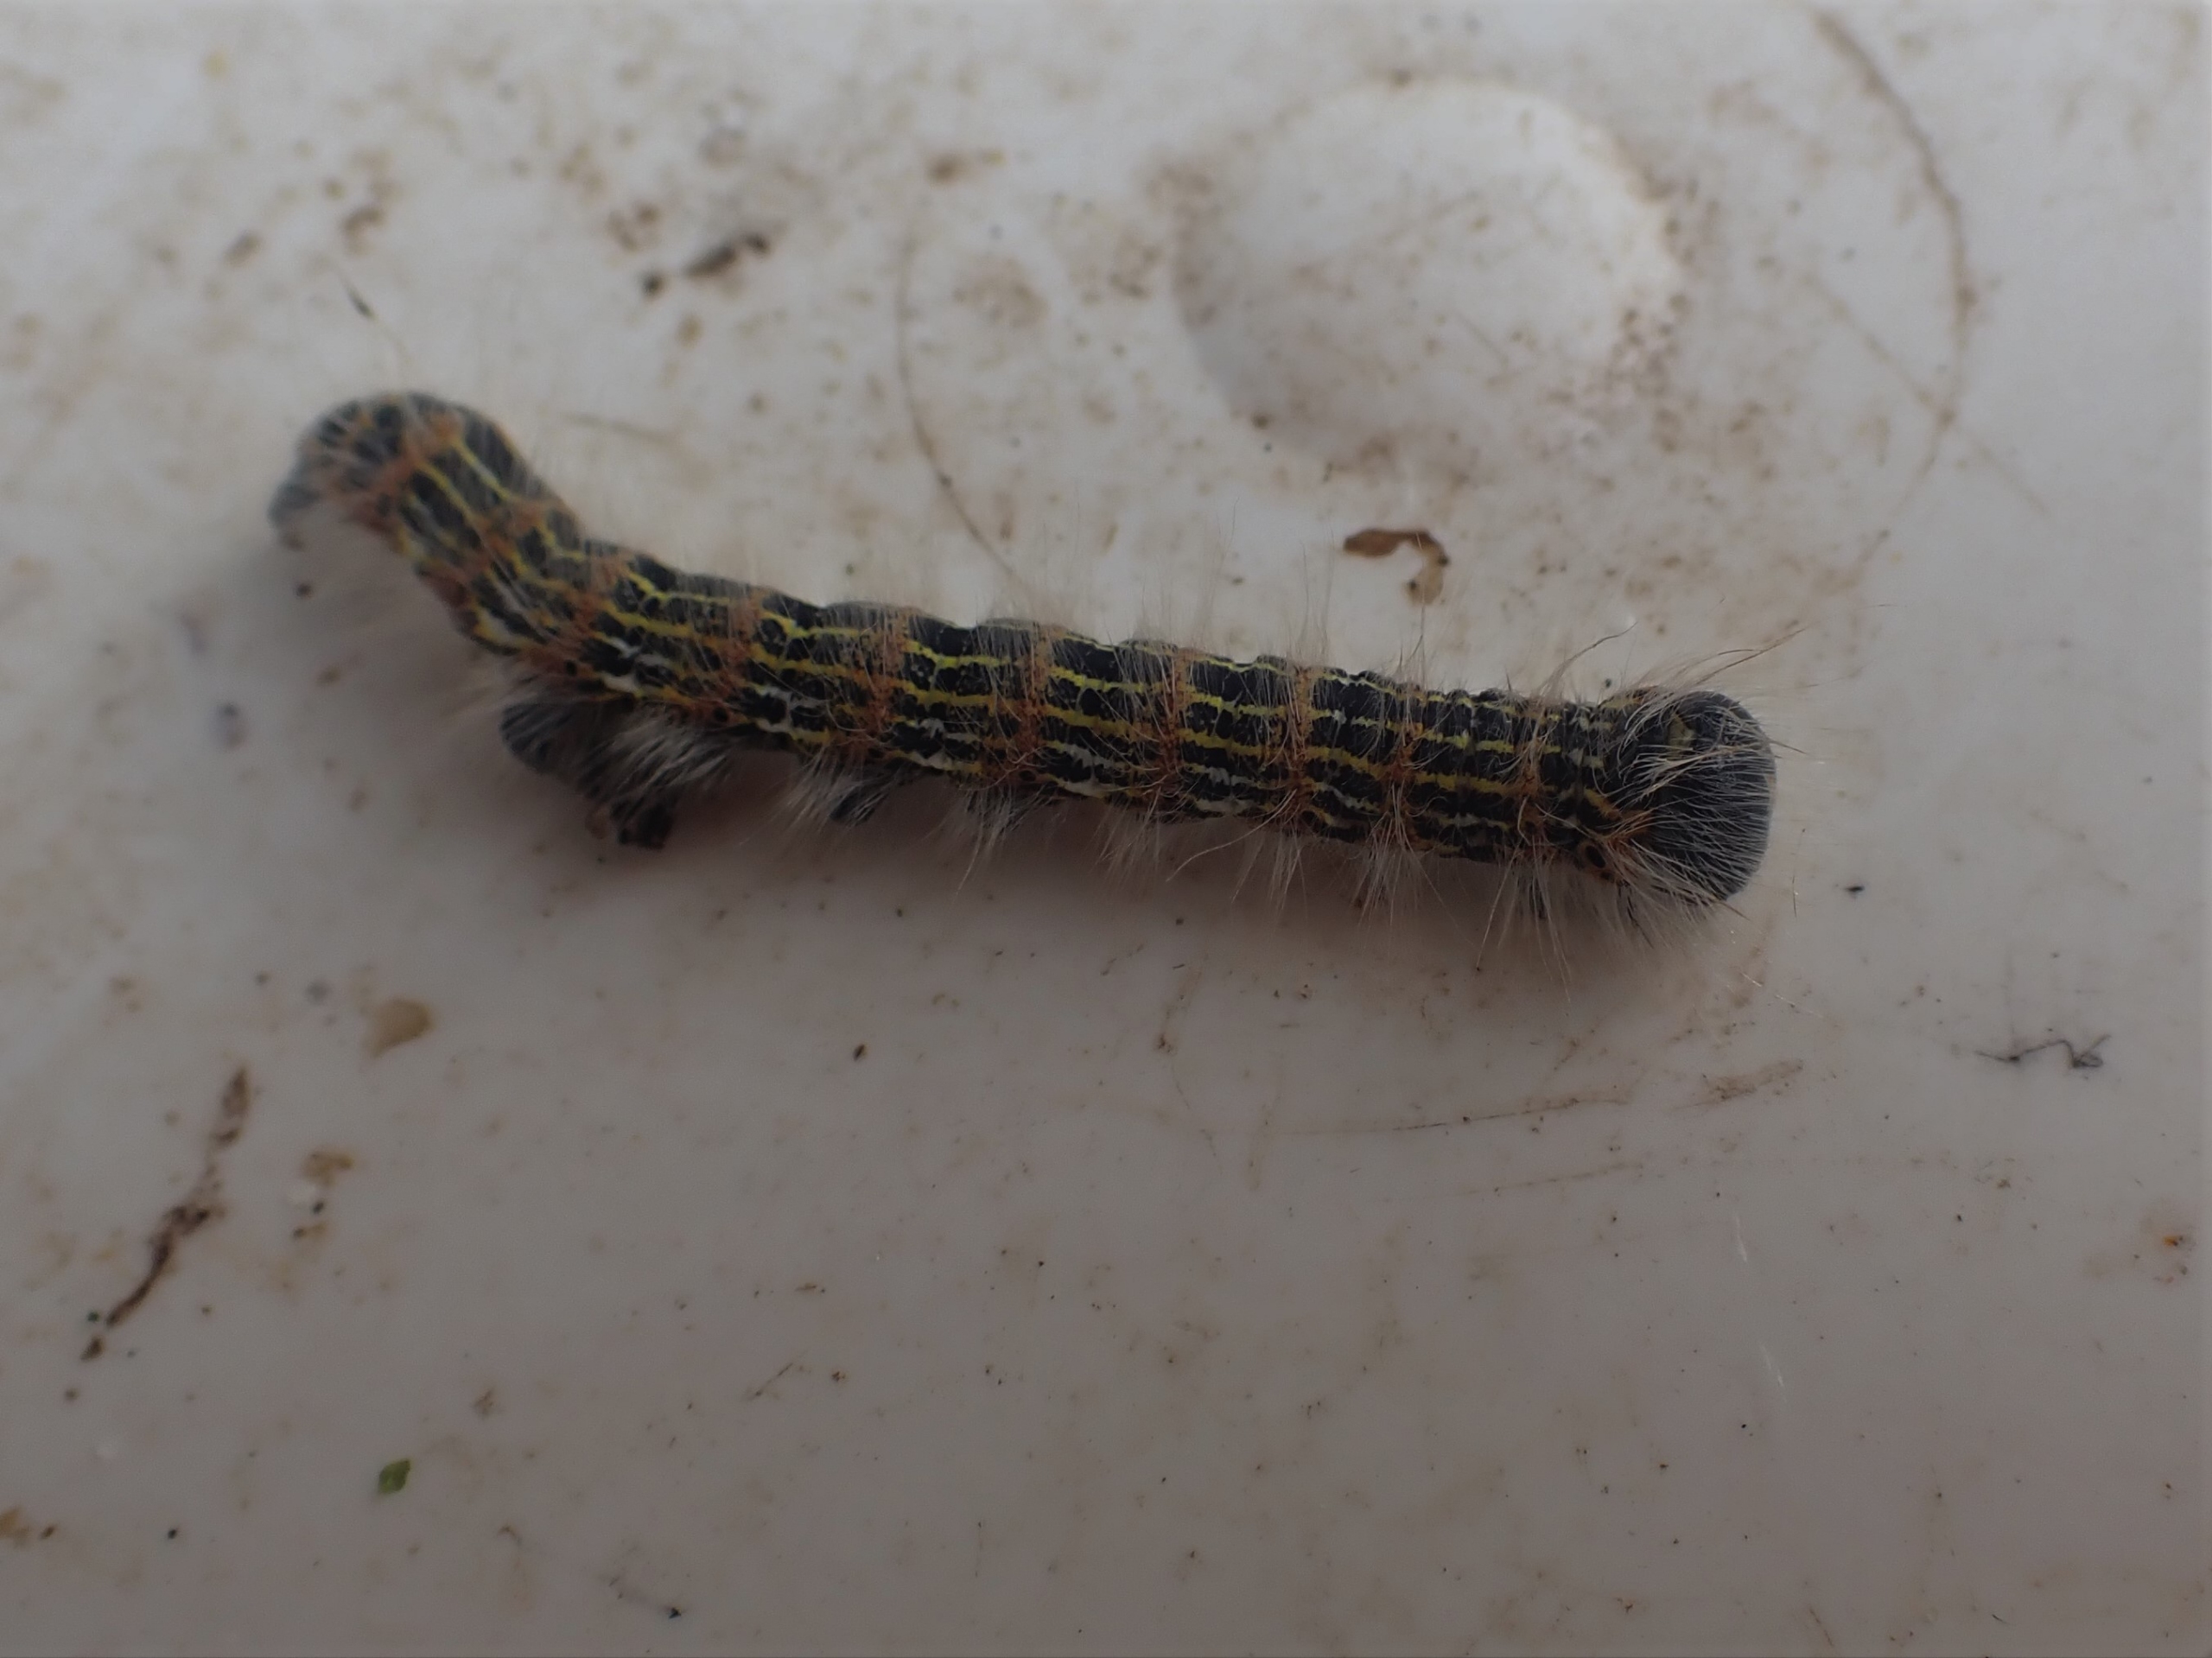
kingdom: Animalia
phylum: Arthropoda
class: Insecta
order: Lepidoptera
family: Notodontidae
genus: Phalera
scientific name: Phalera bucephala
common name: Måneplet
